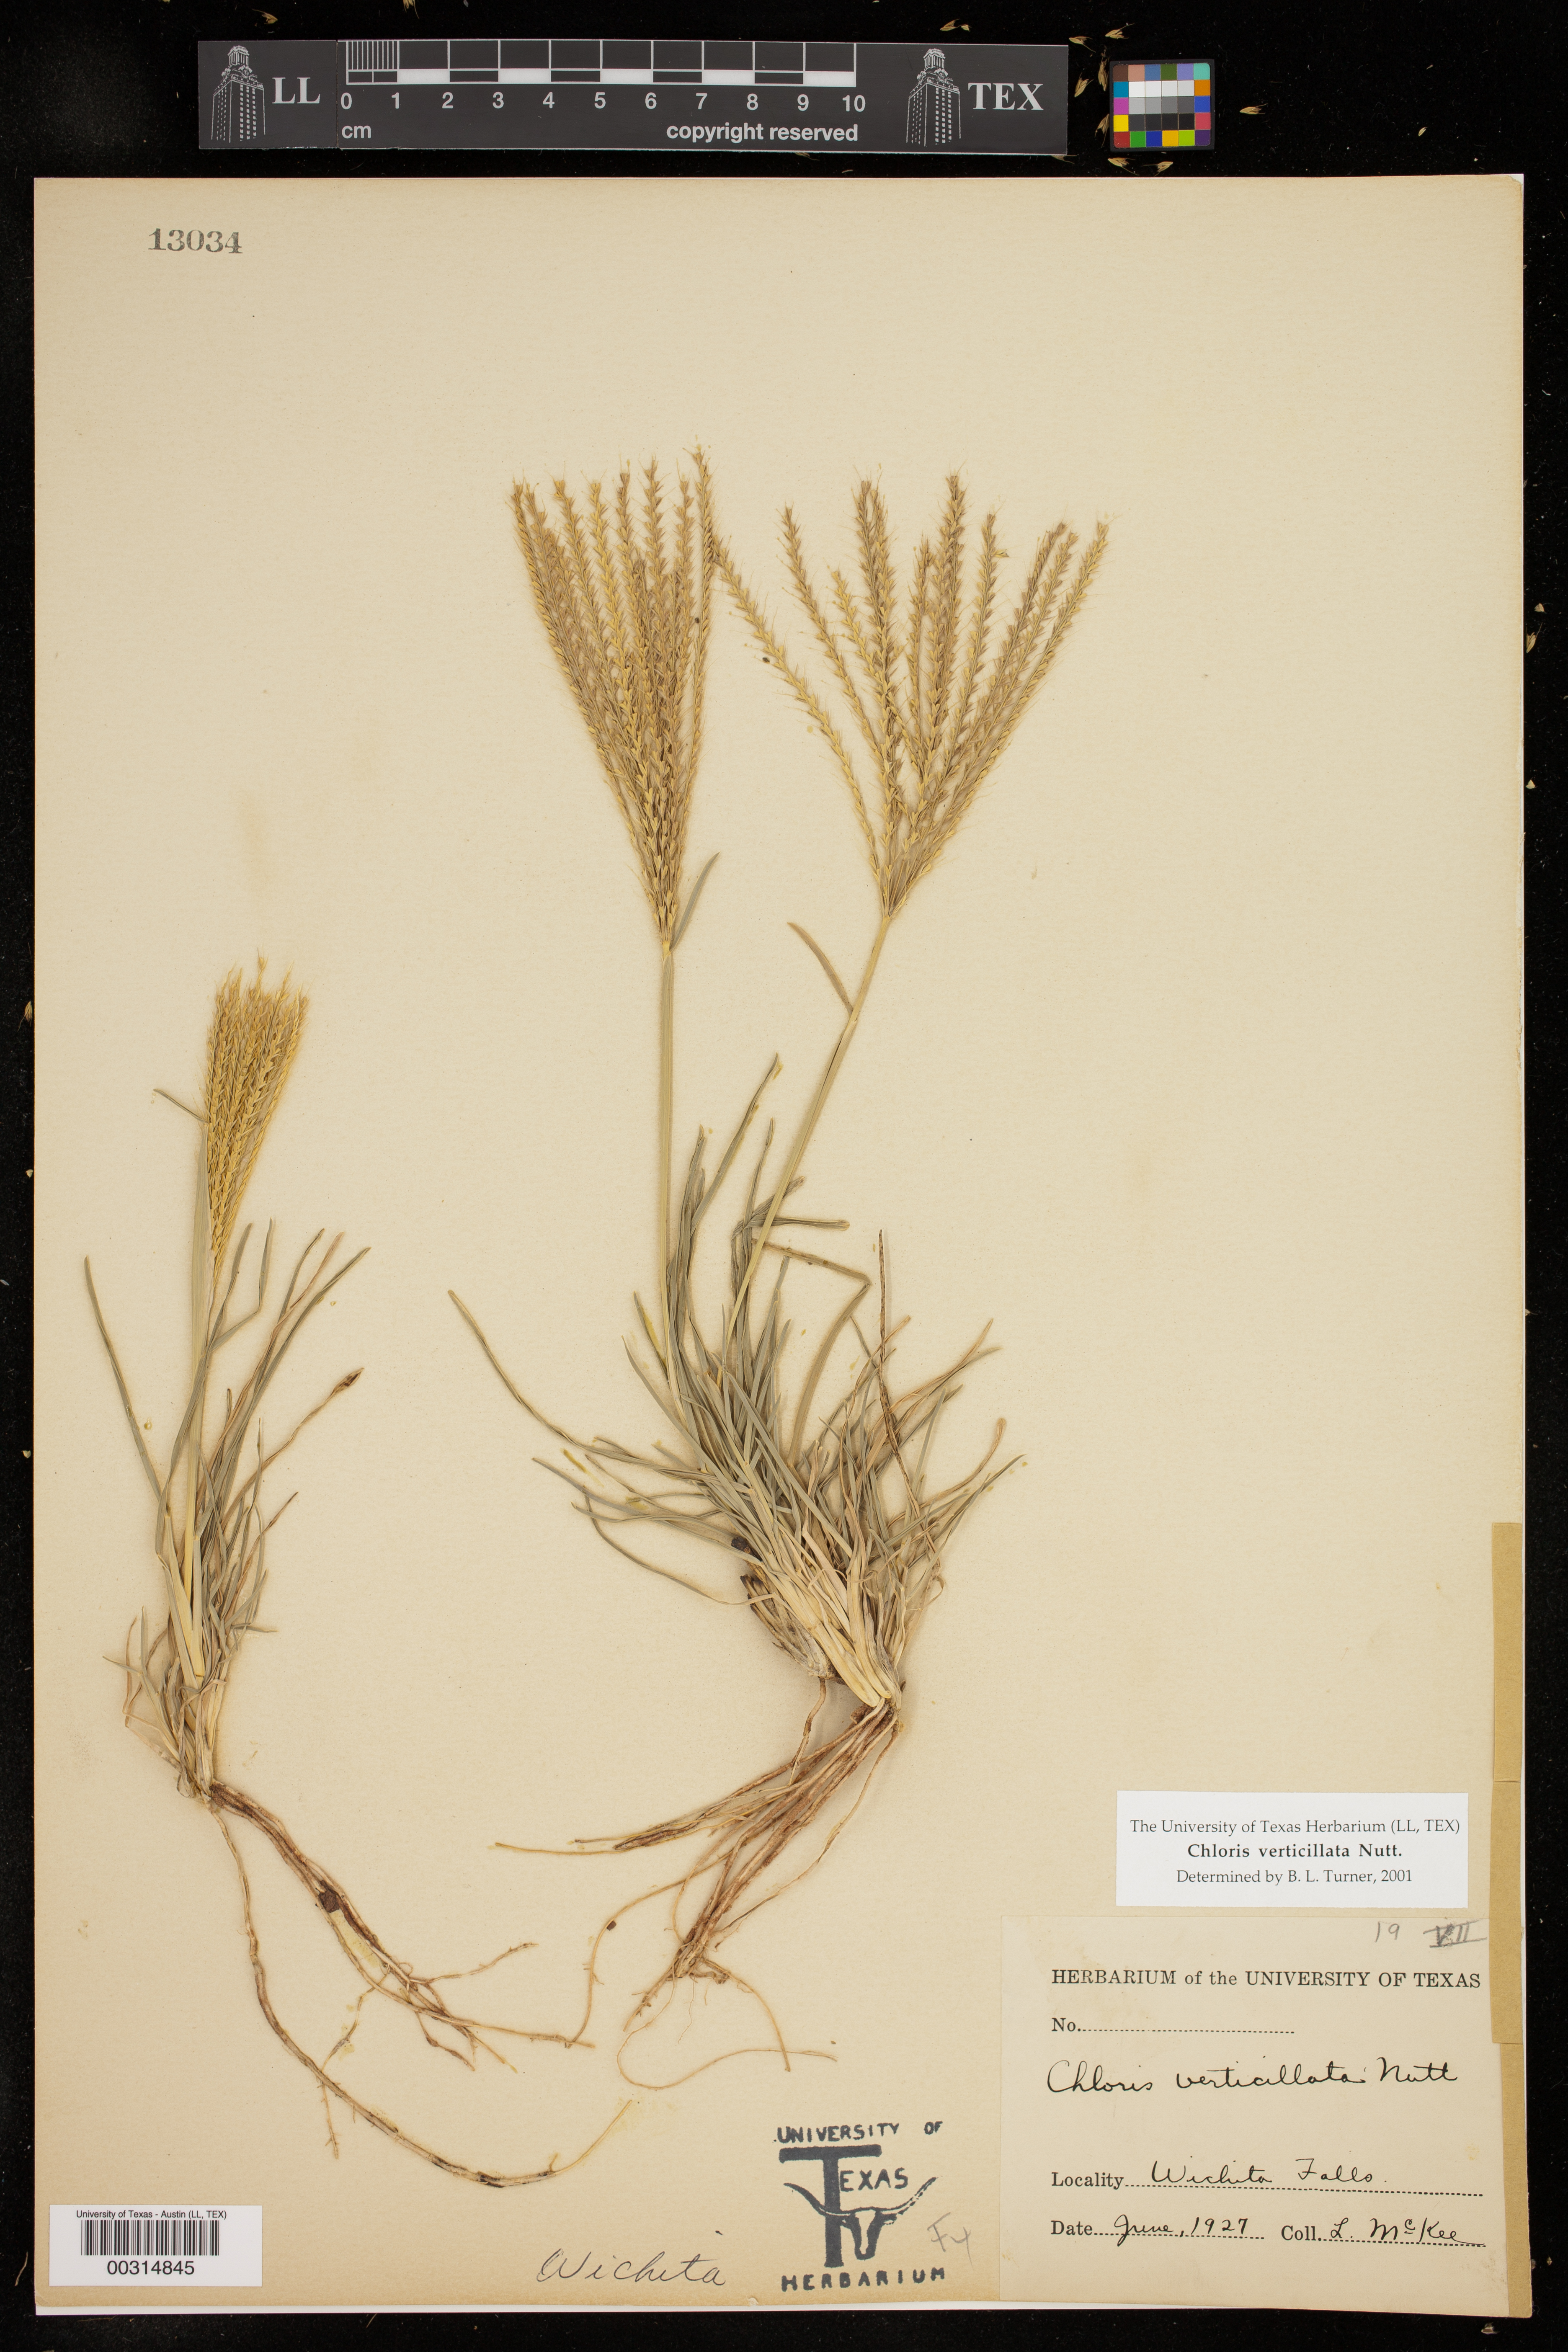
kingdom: Plantae
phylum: Tracheophyta
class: Liliopsida
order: Poales
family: Poaceae
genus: Chloris
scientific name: Chloris verticillata
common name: Tumble windmill grass
